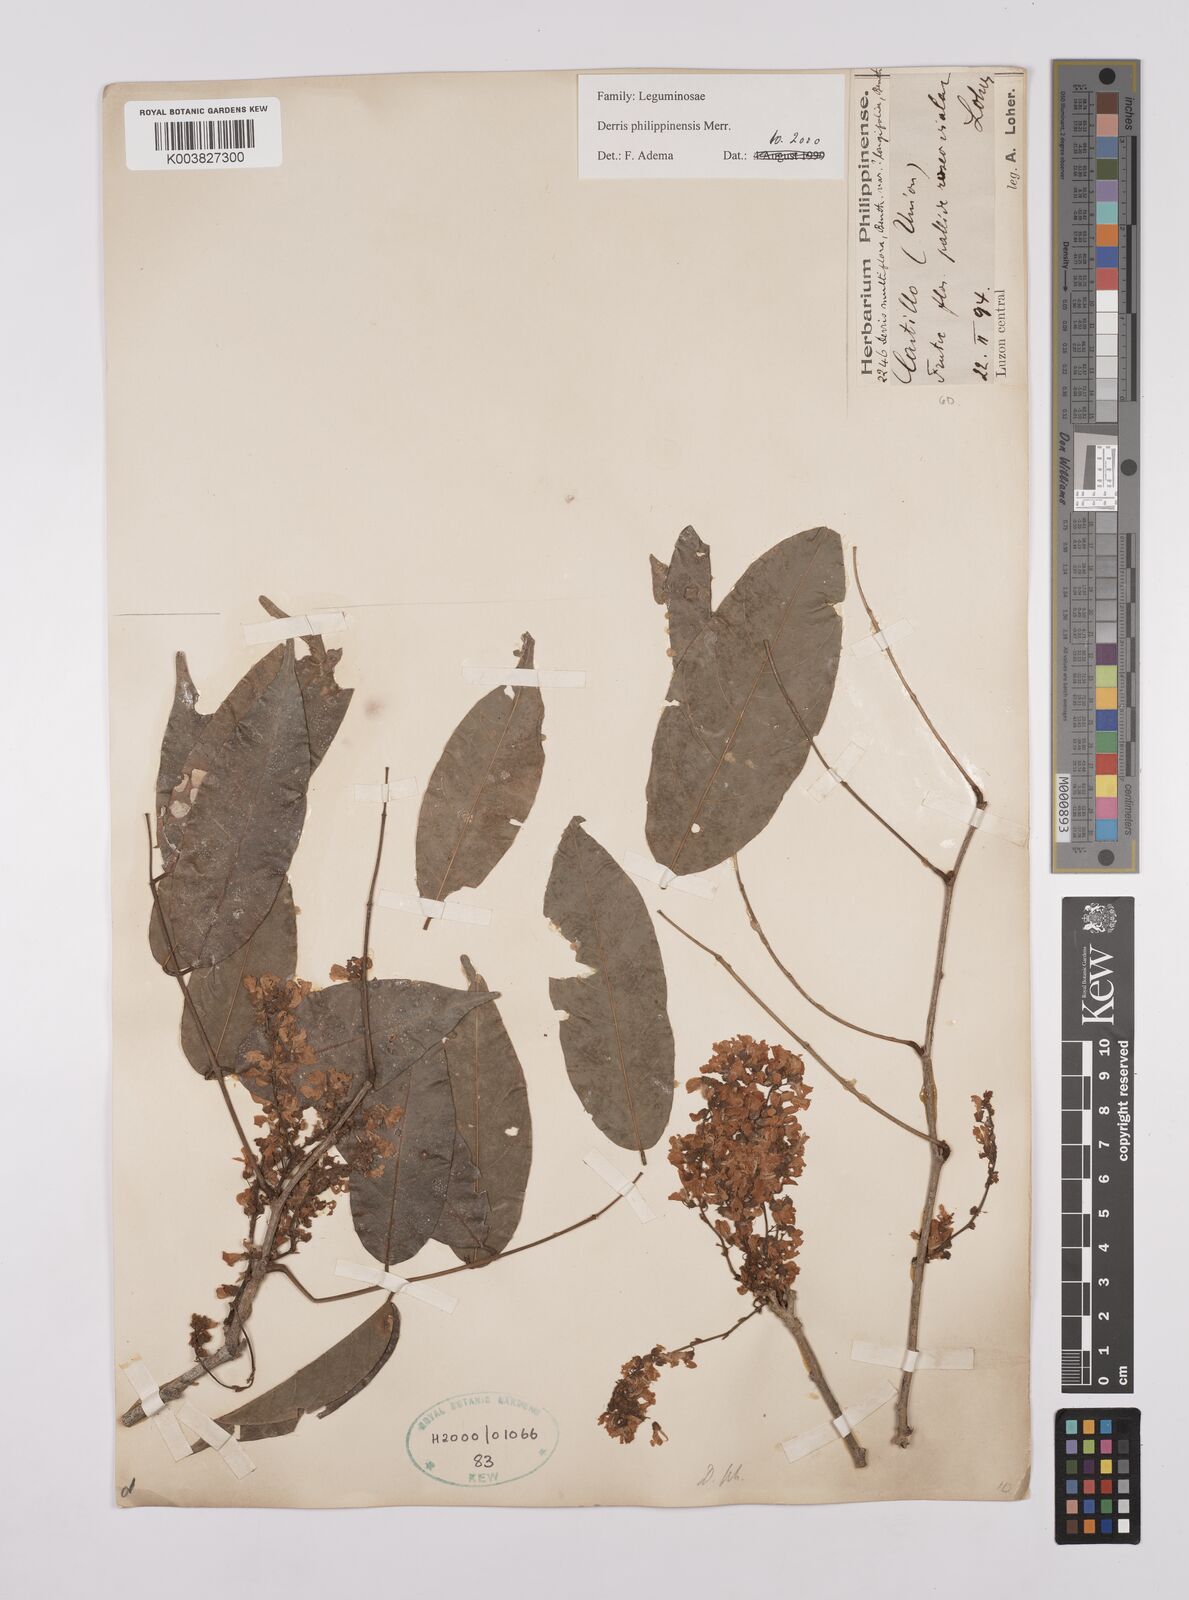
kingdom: Plantae
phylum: Tracheophyta
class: Magnoliopsida
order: Fabales
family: Fabaceae
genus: Brachypterum
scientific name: Brachypterum philippinense
